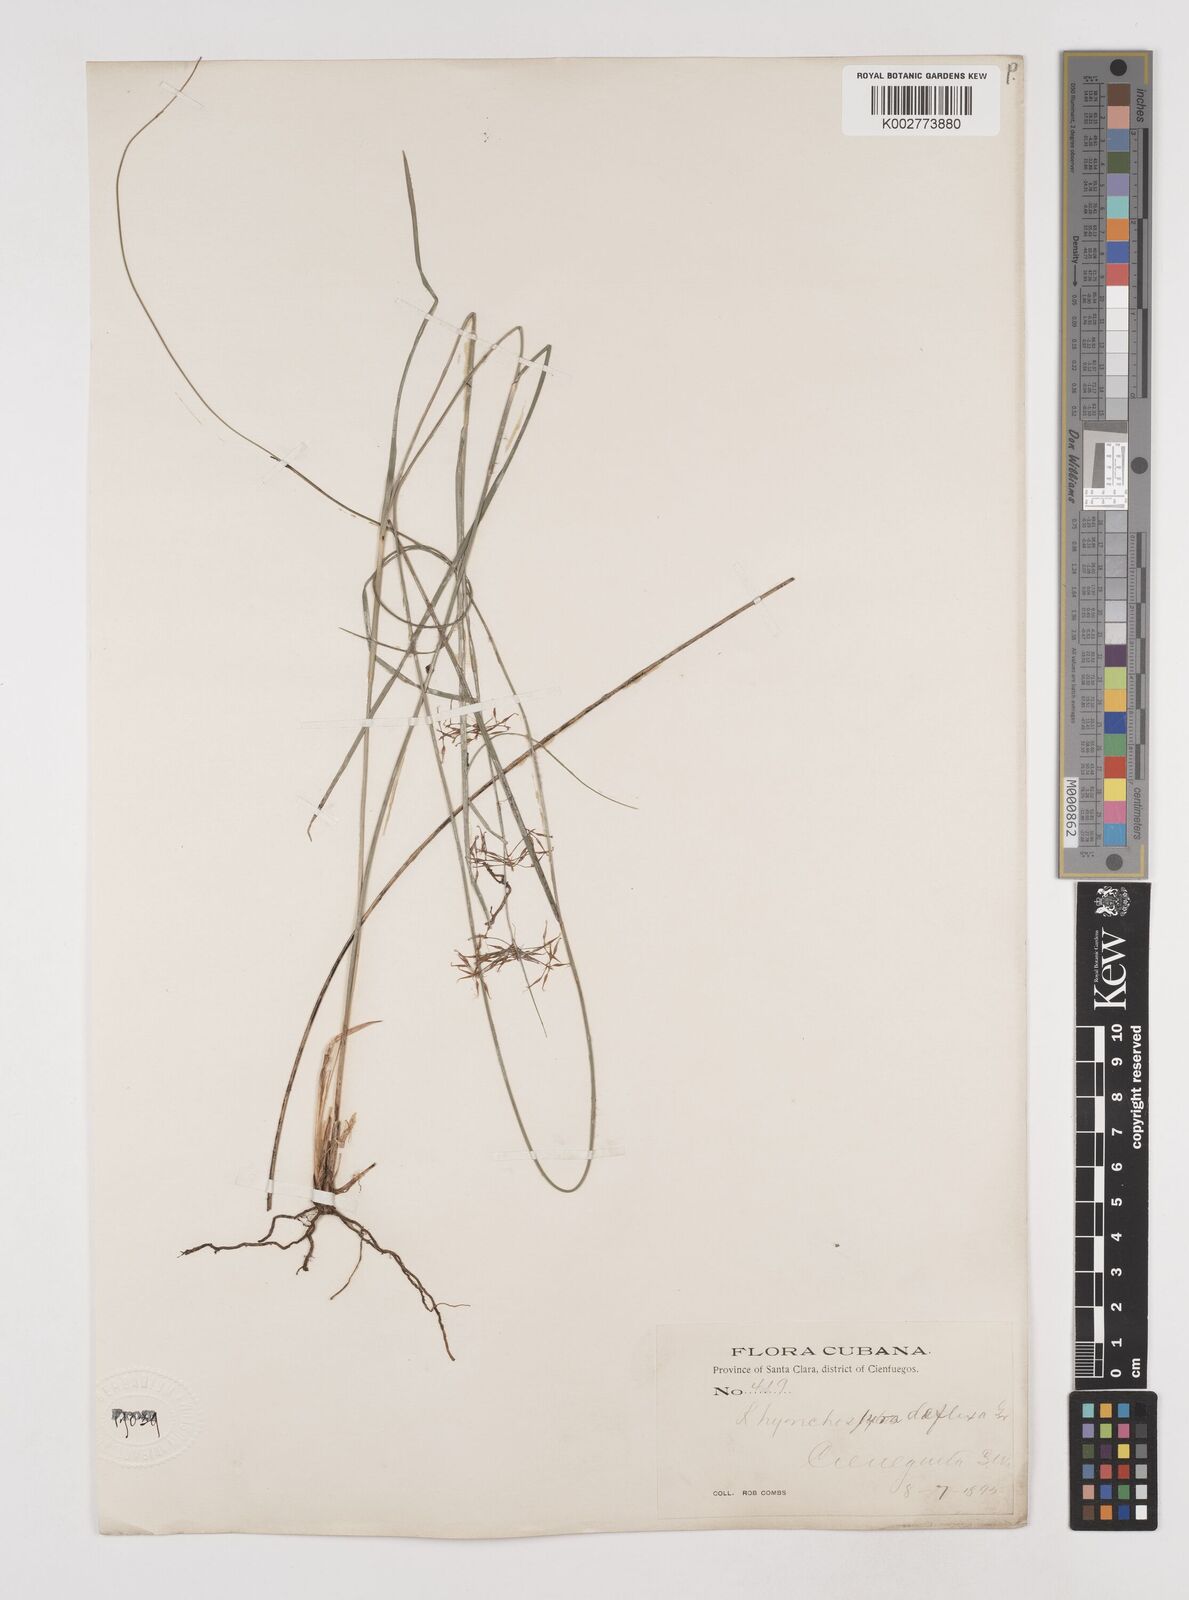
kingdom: Plantae
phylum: Tracheophyta
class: Liliopsida
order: Poales
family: Cyperaceae
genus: Rhynchospora
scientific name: Rhynchospora cubensis
